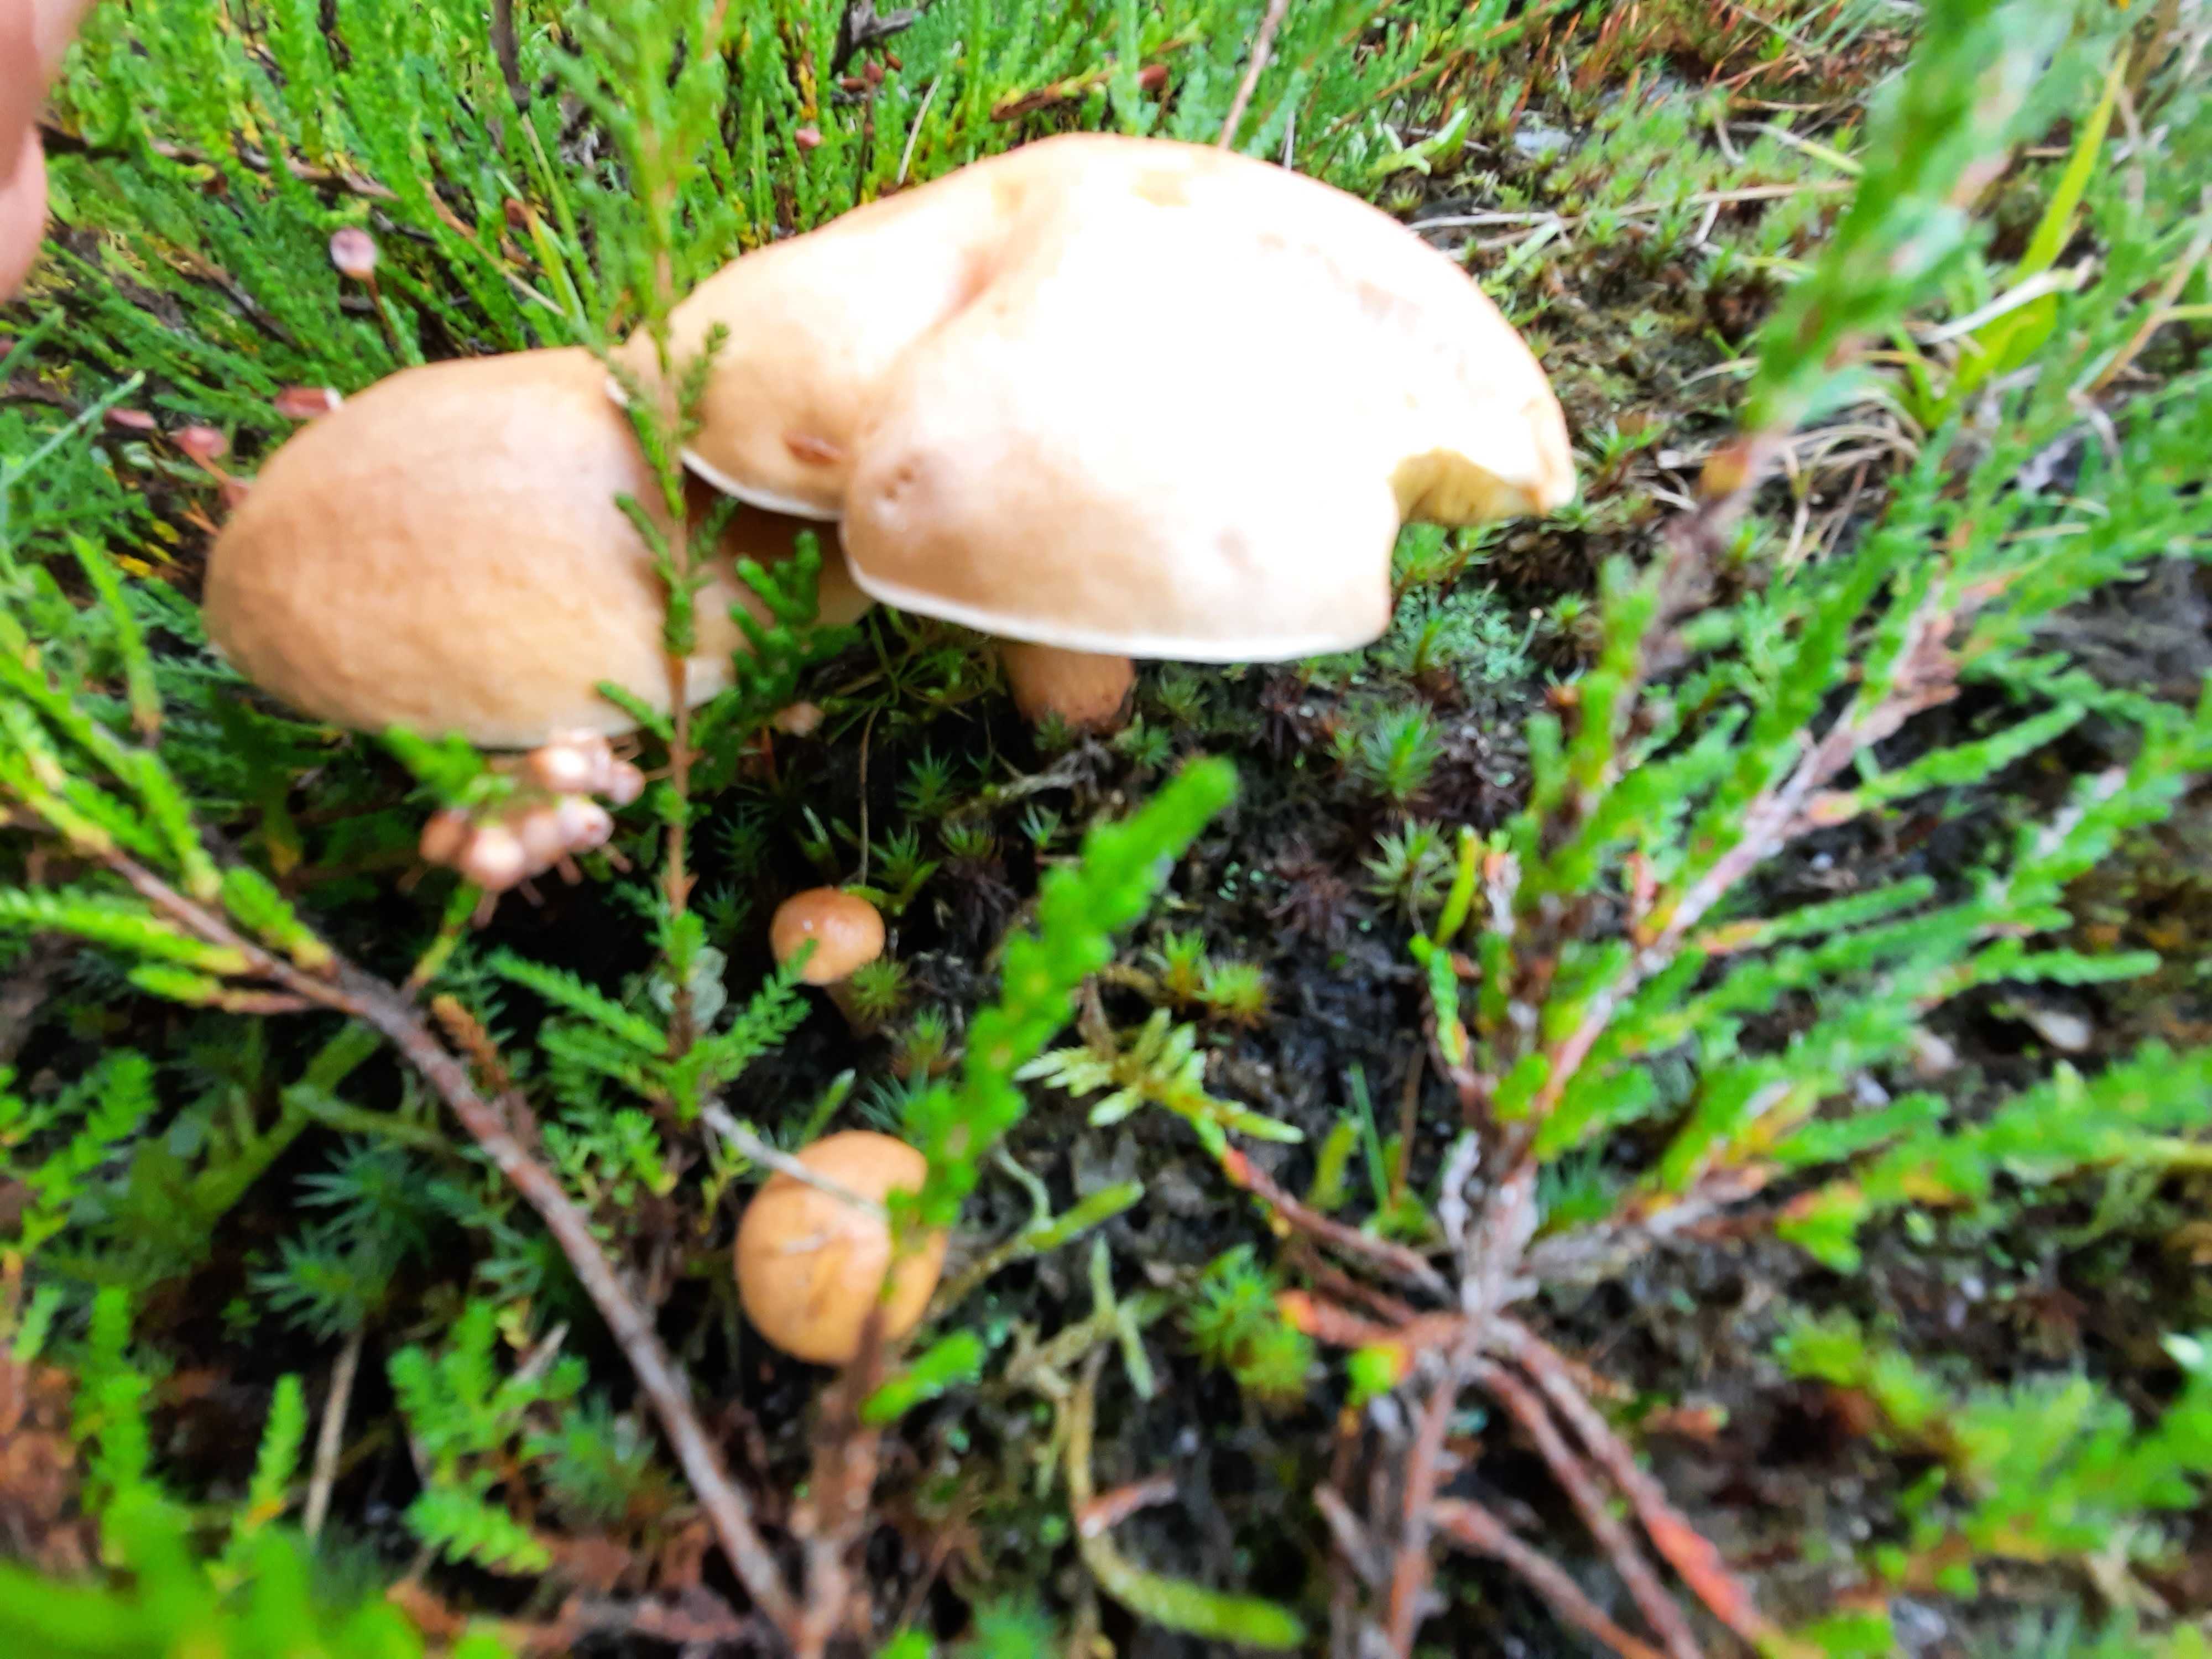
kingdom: Fungi
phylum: Basidiomycota
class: Agaricomycetes
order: Boletales
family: Suillaceae
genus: Suillus
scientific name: Suillus bovinus
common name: grovporet slimrørhat
